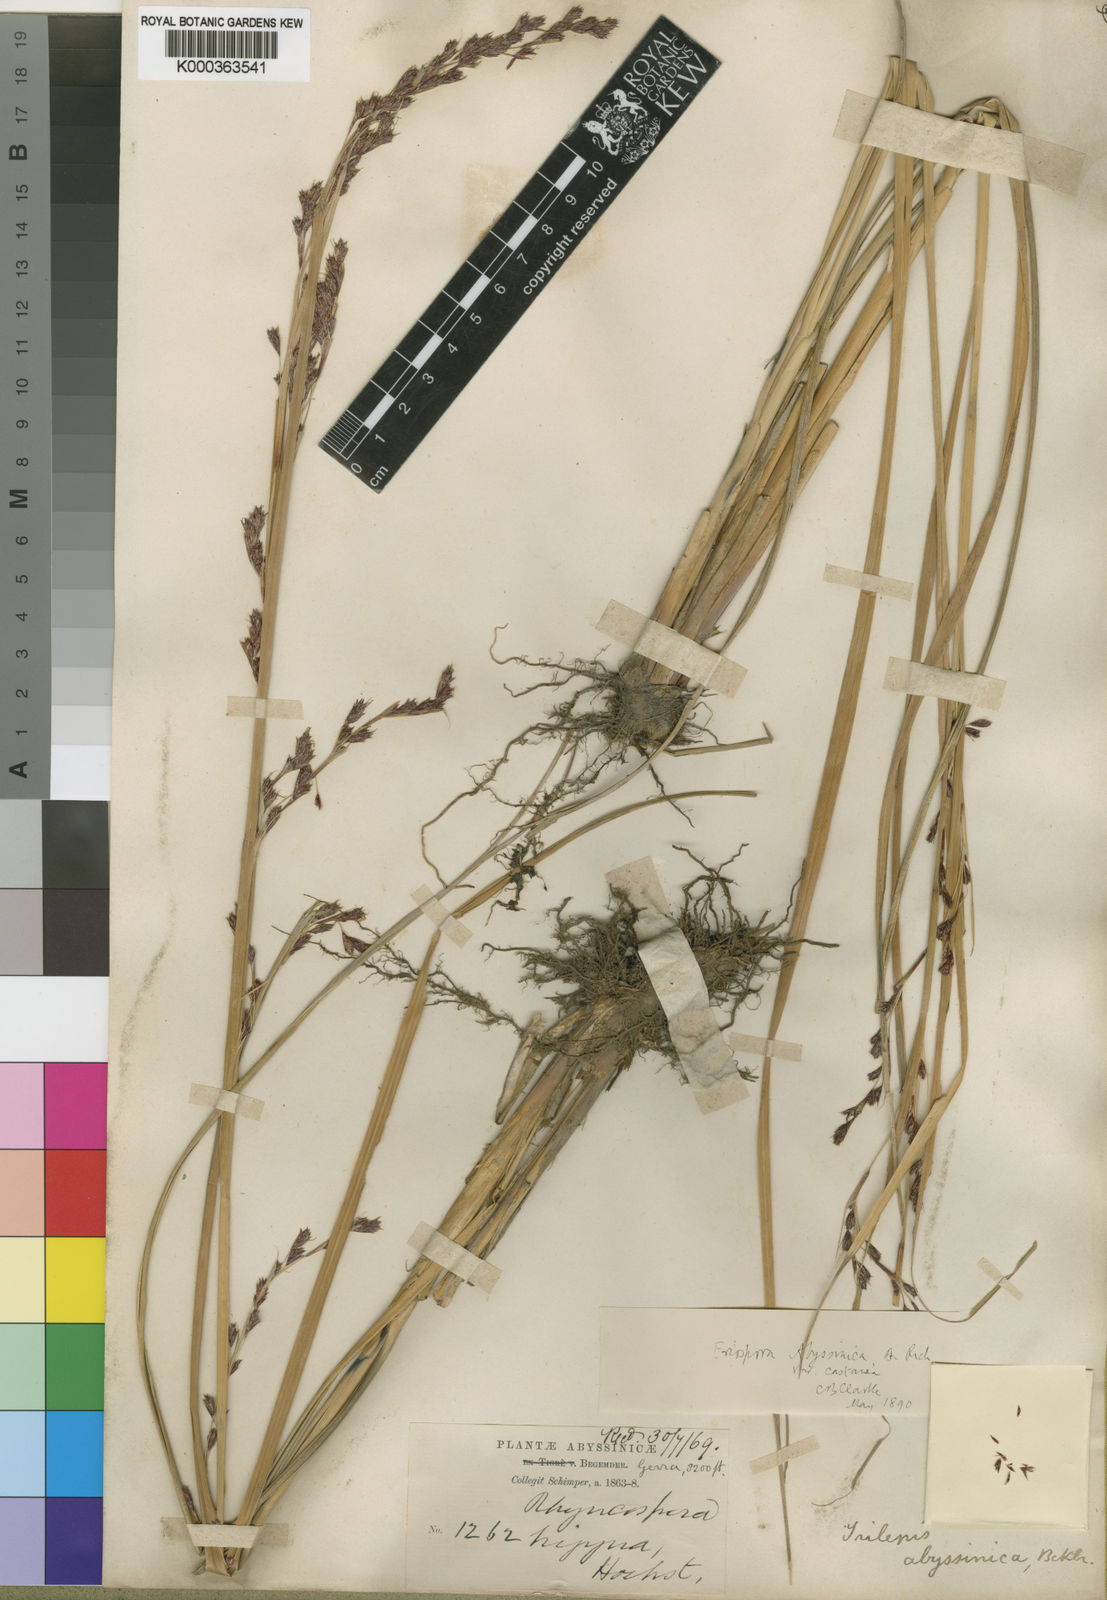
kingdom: Plantae
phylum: Tracheophyta
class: Liliopsida
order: Poales
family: Cyperaceae
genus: Coleochloa
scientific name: Coleochloa abyssinica
